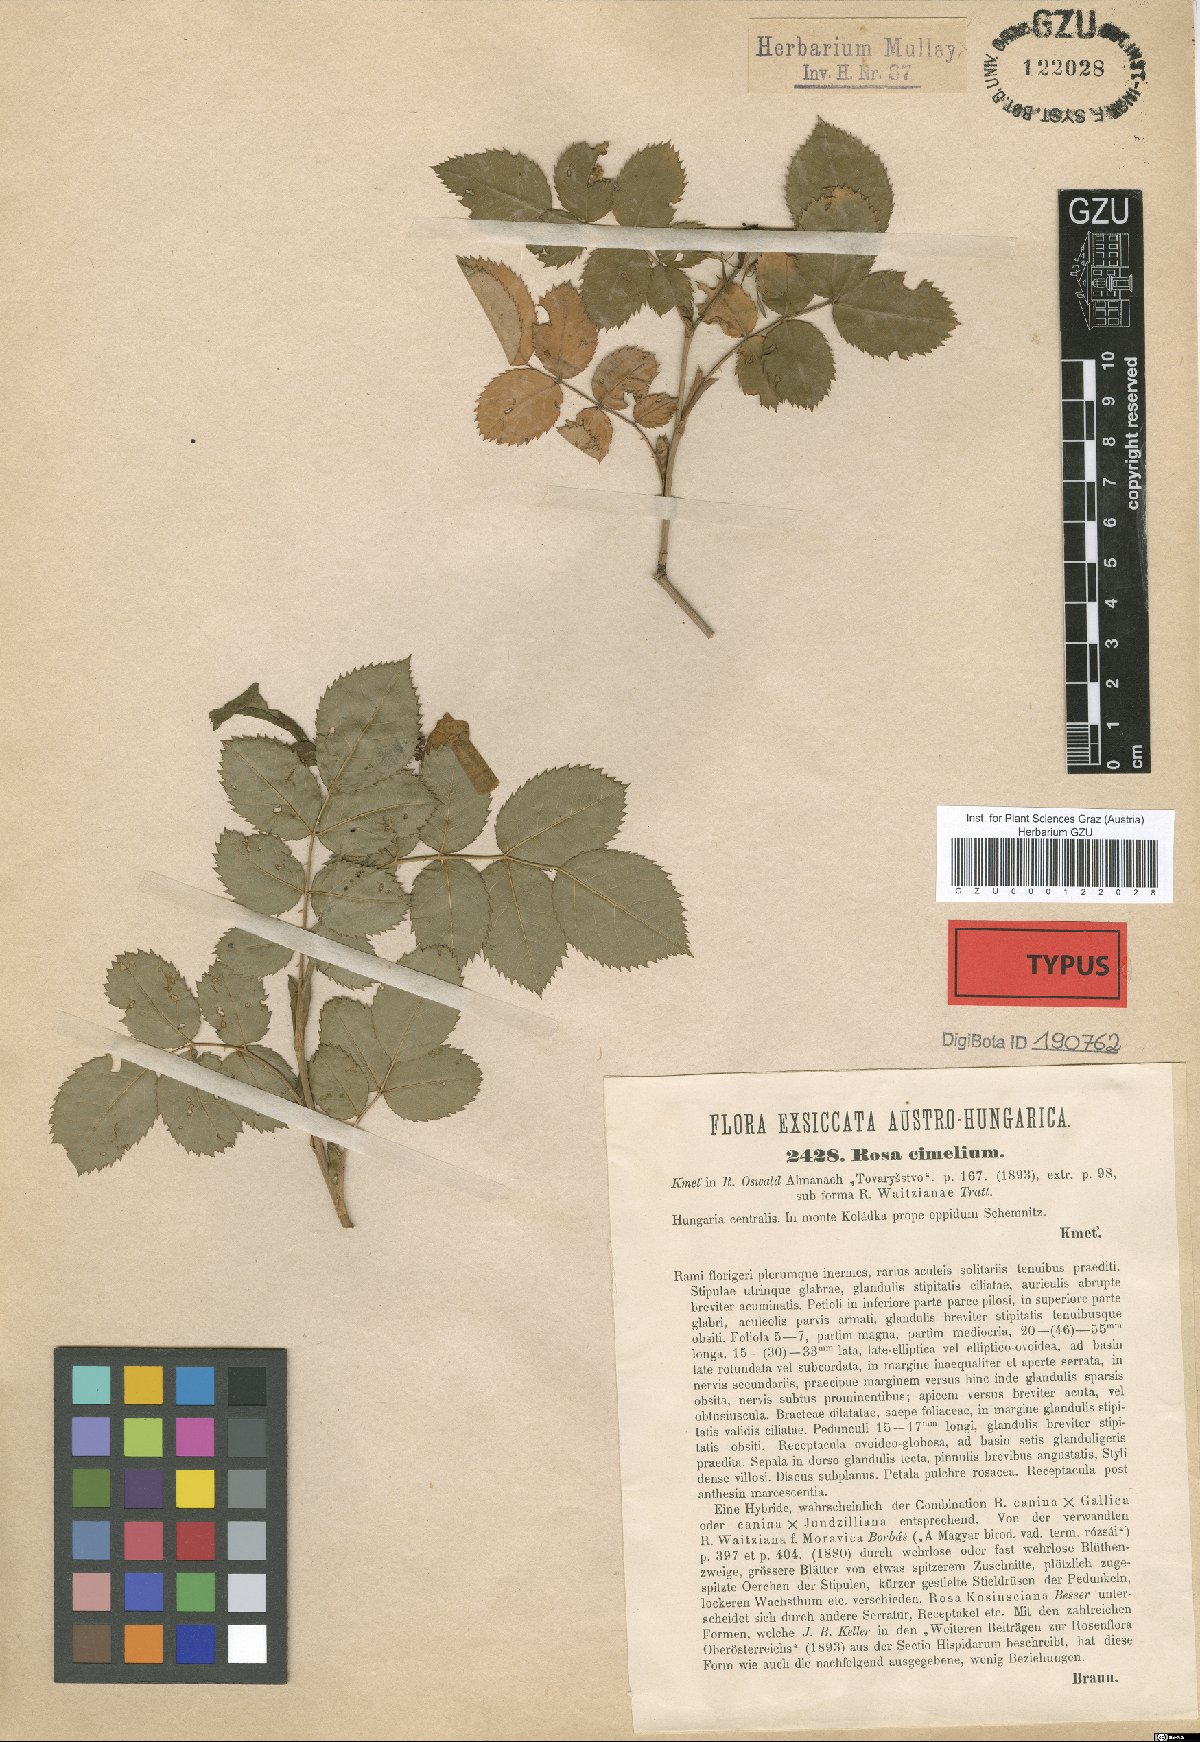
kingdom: Plantae
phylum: Tracheophyta
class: Magnoliopsida
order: Rosales
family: Rosaceae
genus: Rosa
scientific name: Rosa cimelium
